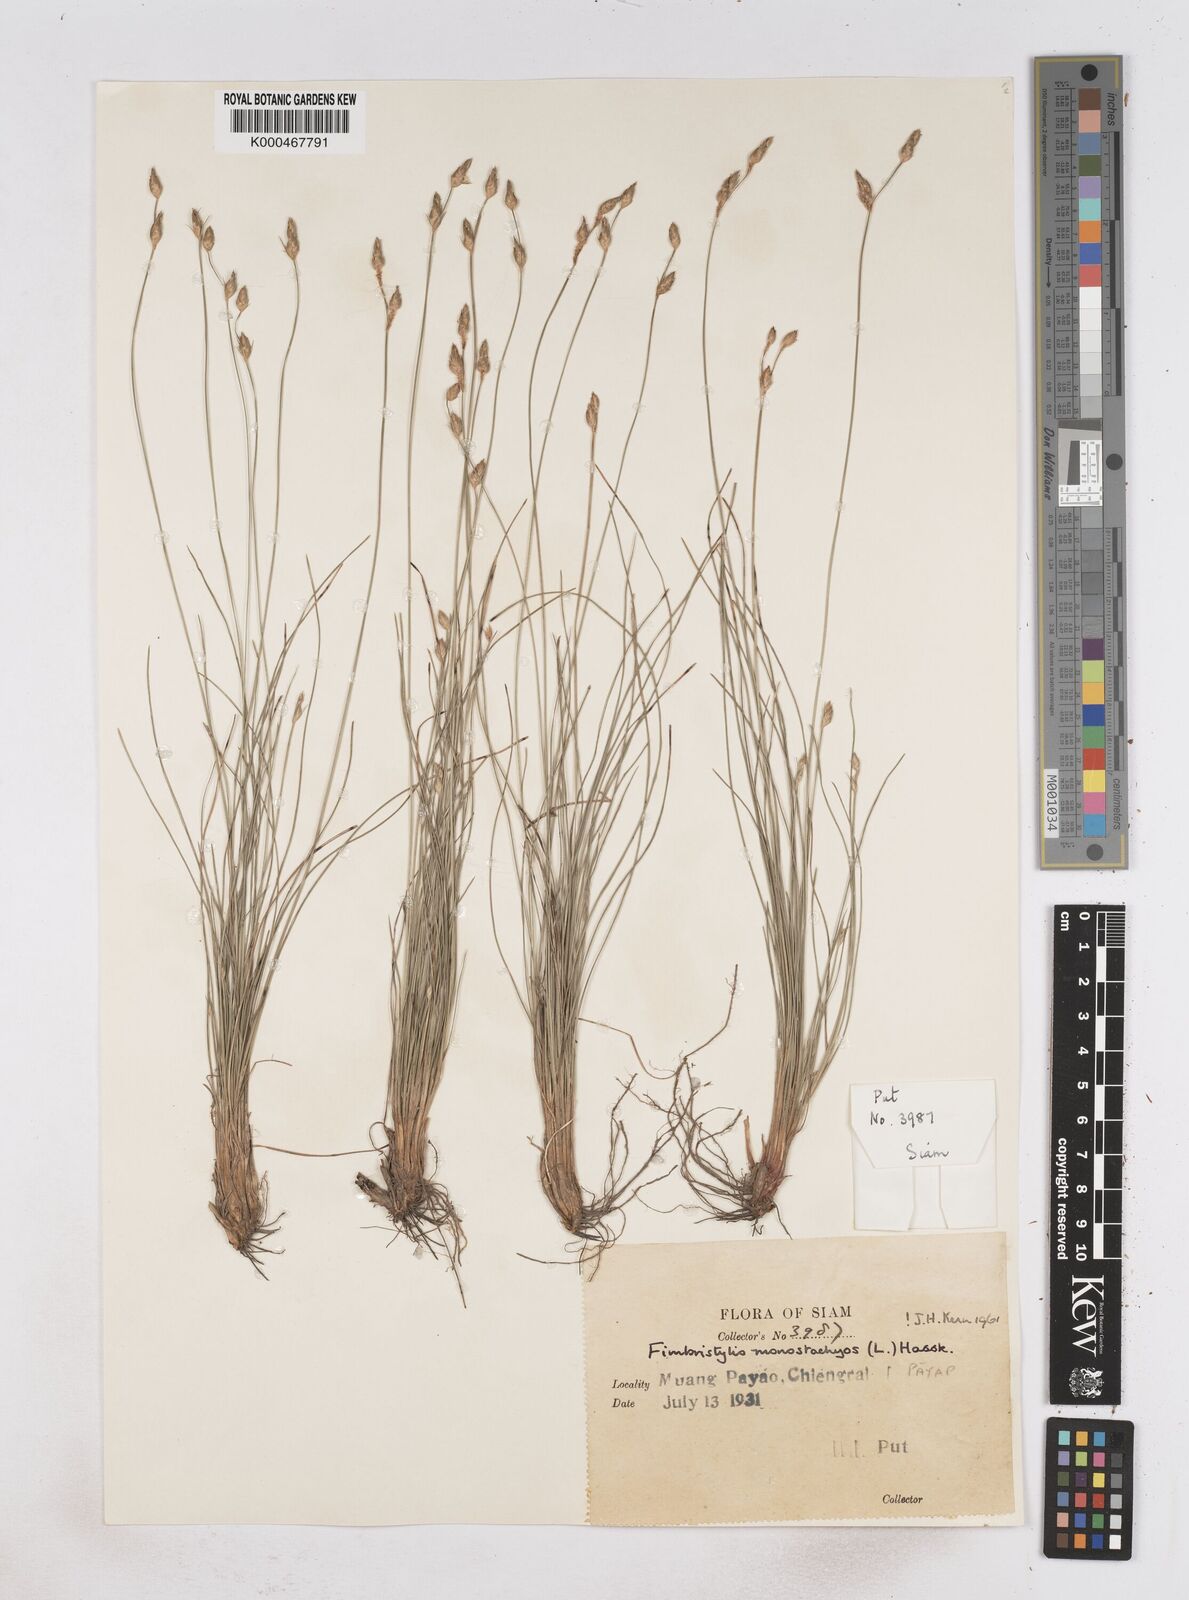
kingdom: Plantae
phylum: Tracheophyta
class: Liliopsida
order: Poales
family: Cyperaceae
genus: Abildgaardia
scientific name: Abildgaardia ovata
